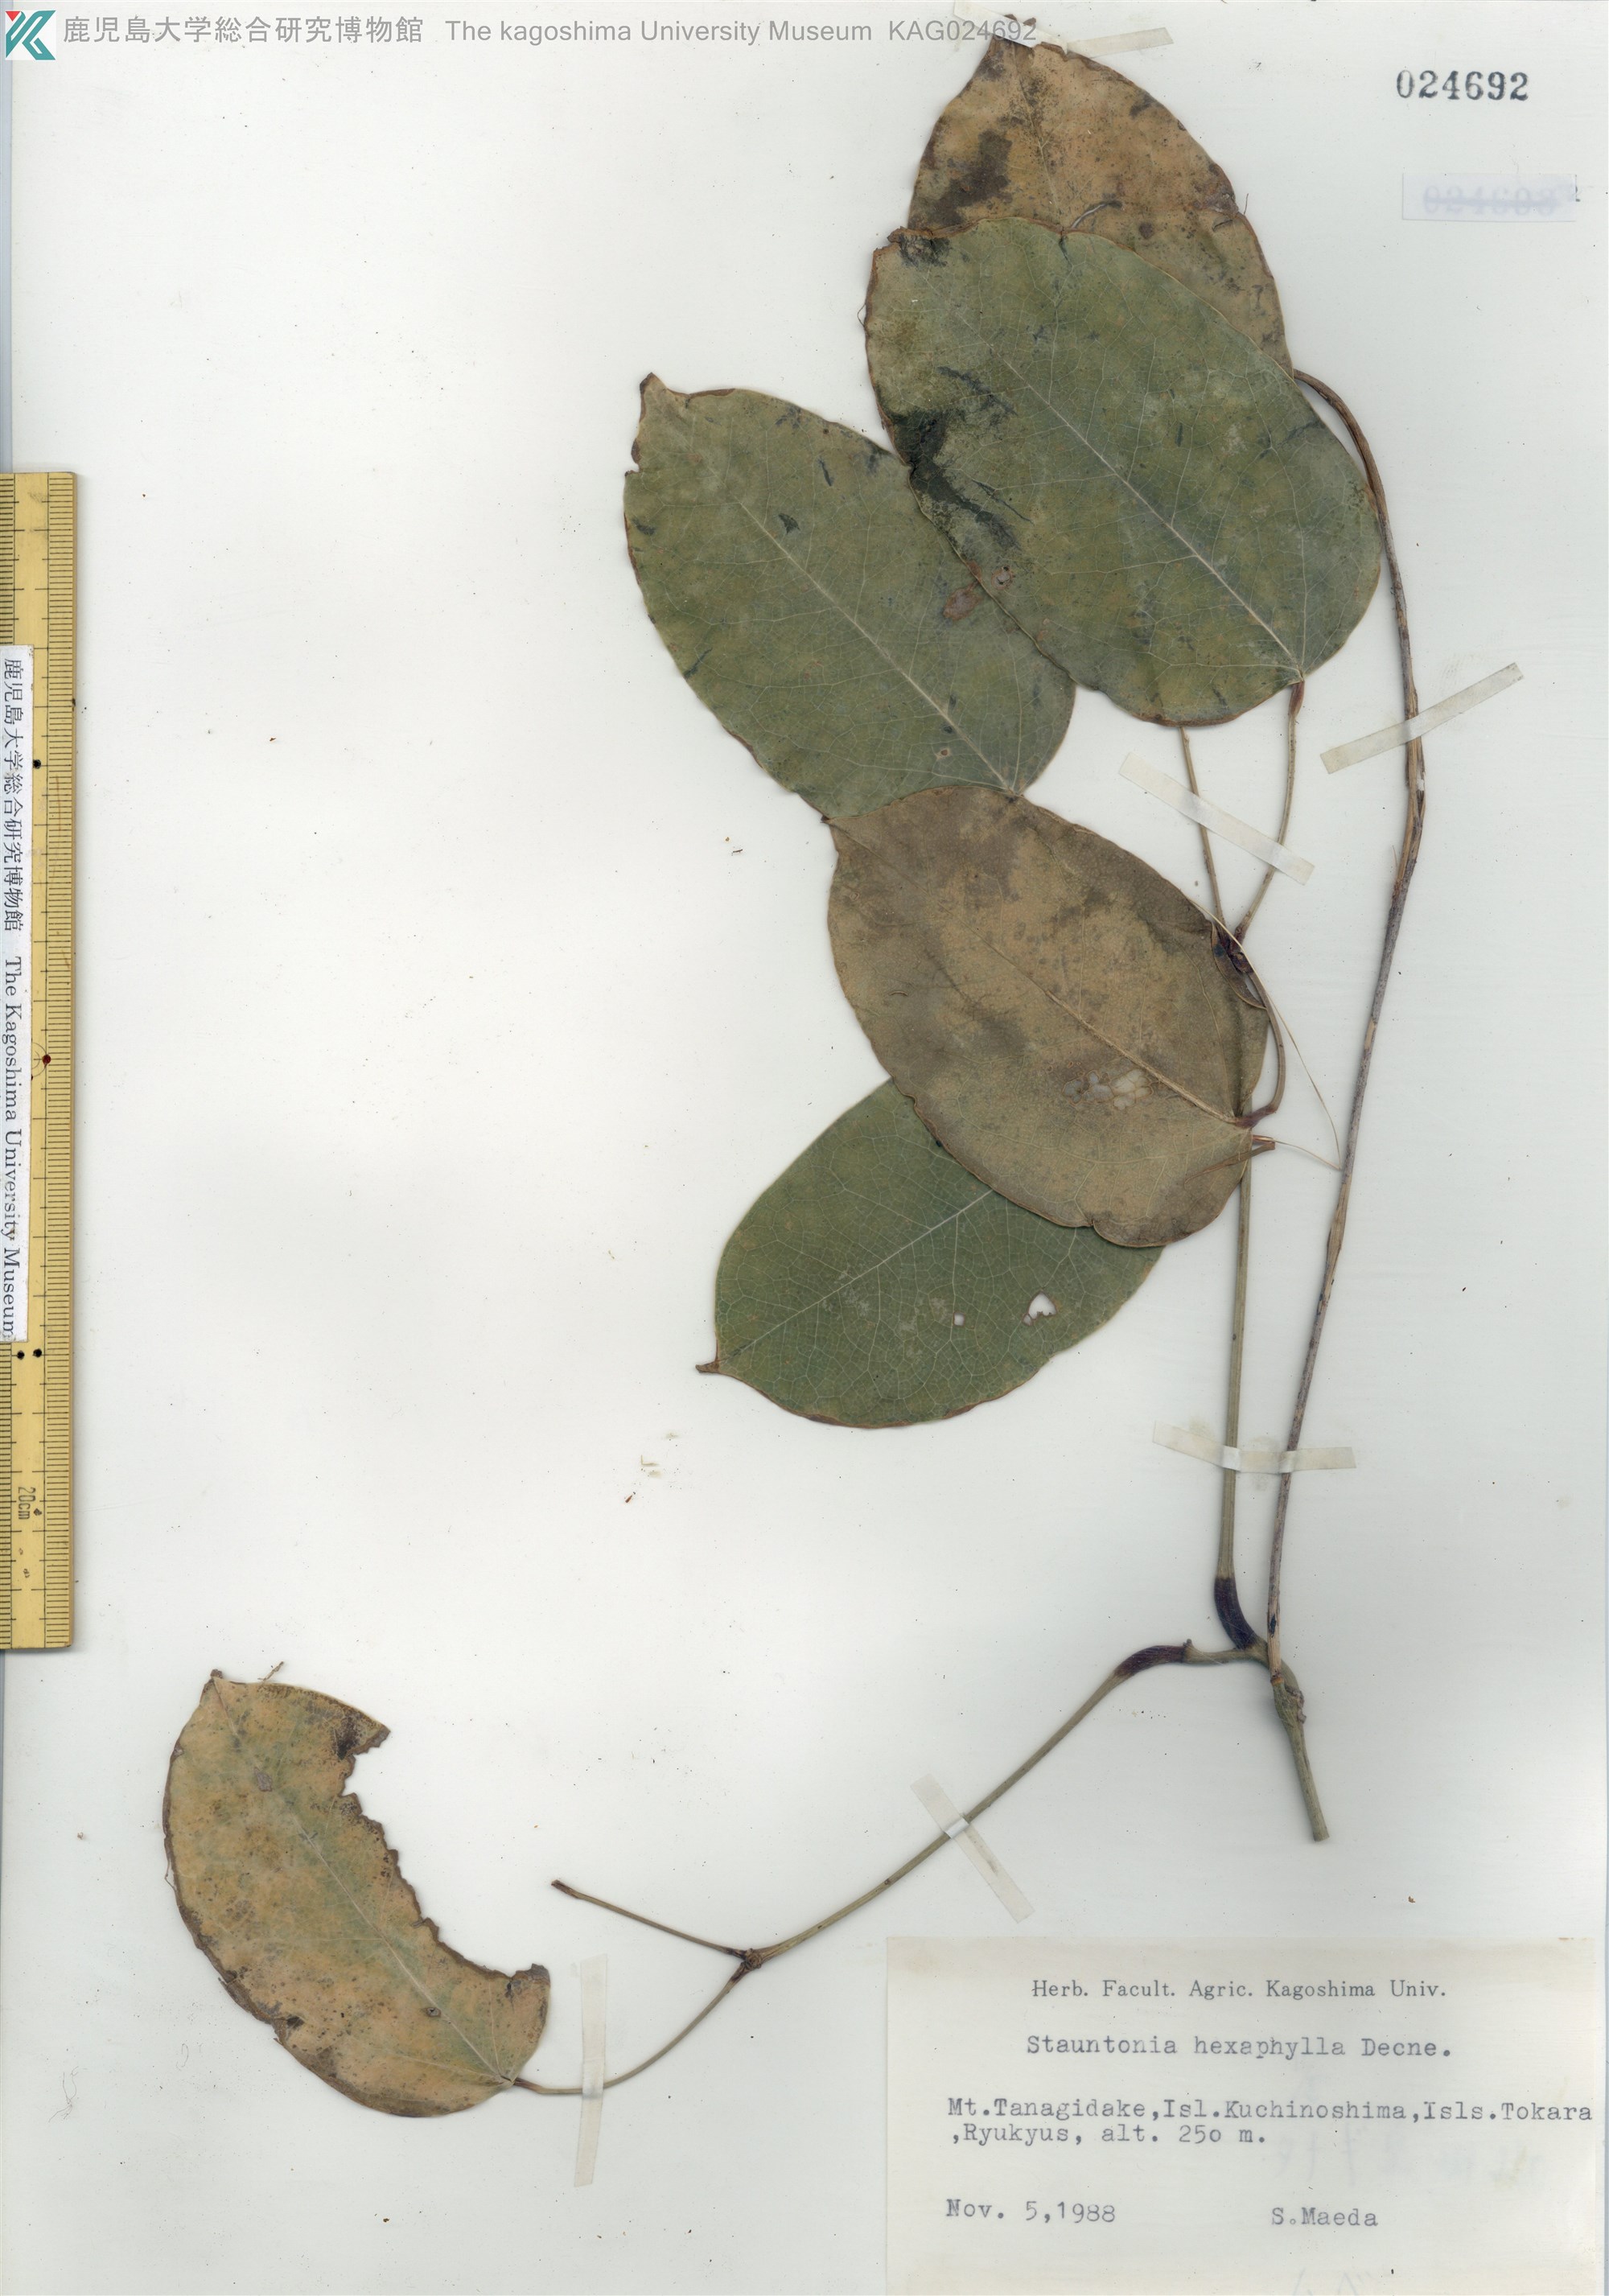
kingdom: Plantae
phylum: Tracheophyta
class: Magnoliopsida
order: Ranunculales
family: Lardizabalaceae
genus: Stauntonia
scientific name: Stauntonia hexaphylla
